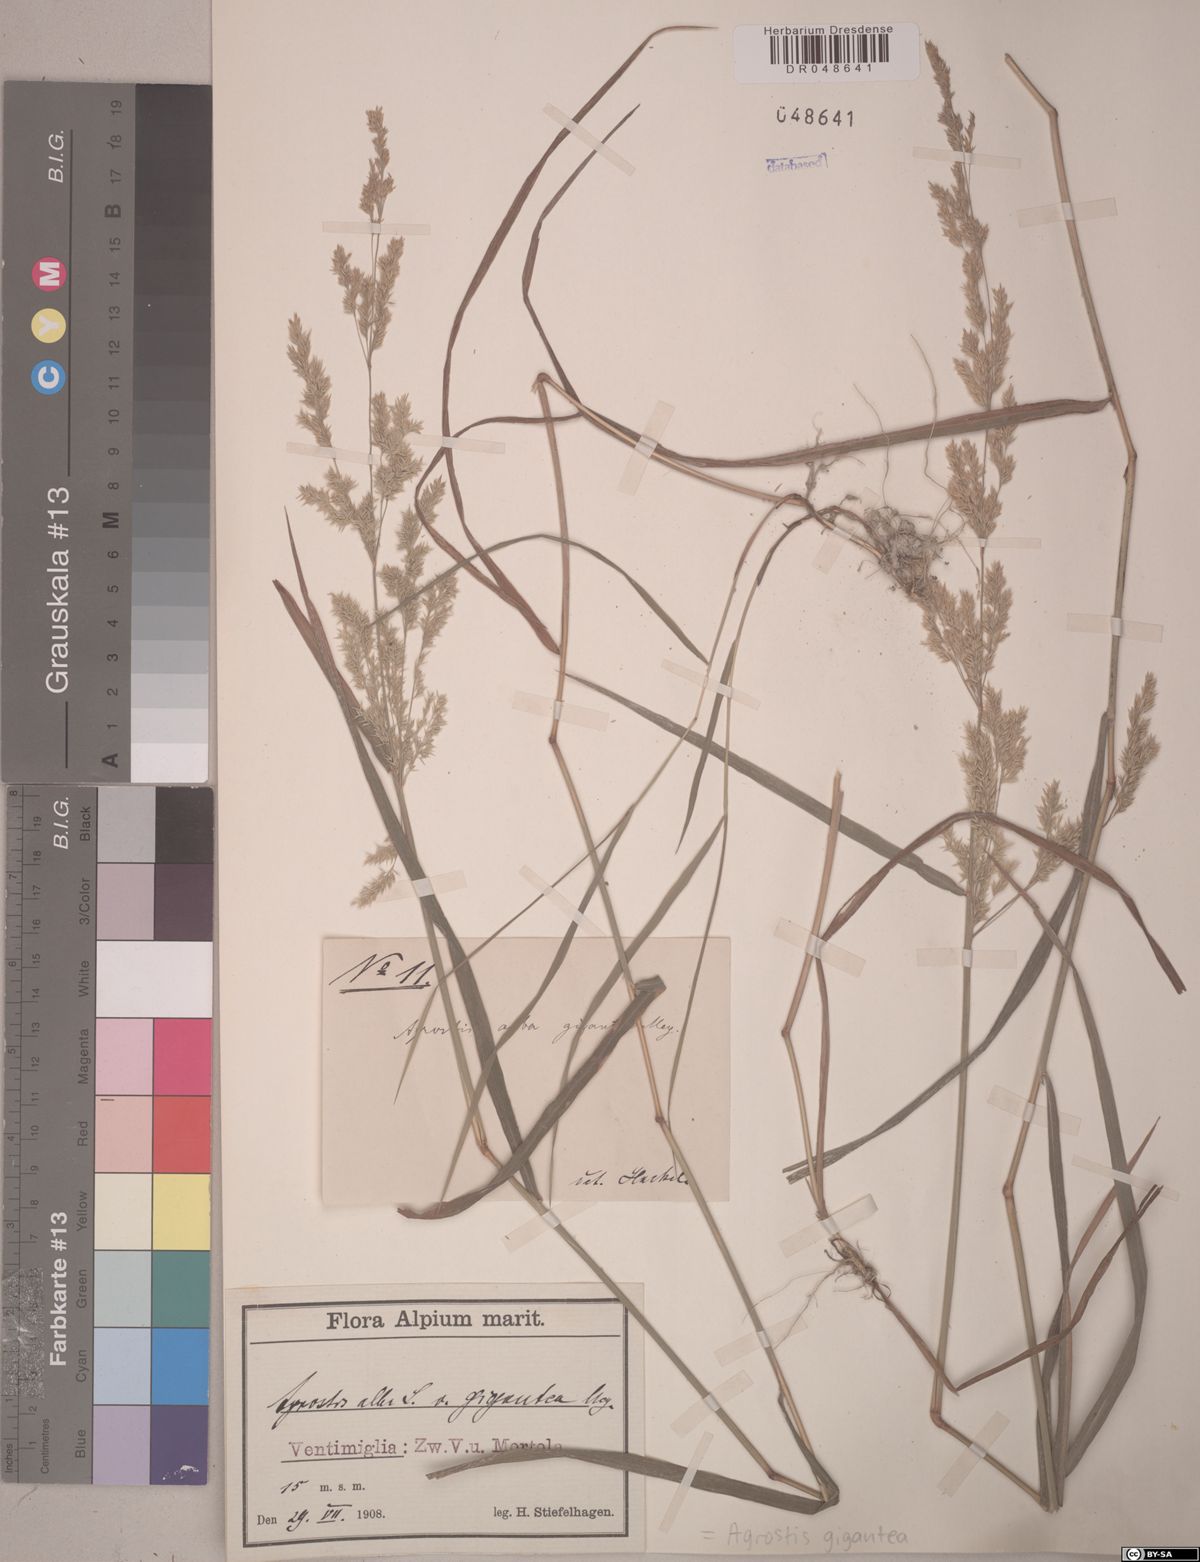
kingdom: Plantae
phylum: Tracheophyta
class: Liliopsida
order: Poales
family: Poaceae
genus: Agrostis
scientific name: Agrostis gigantea
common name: Black bent
